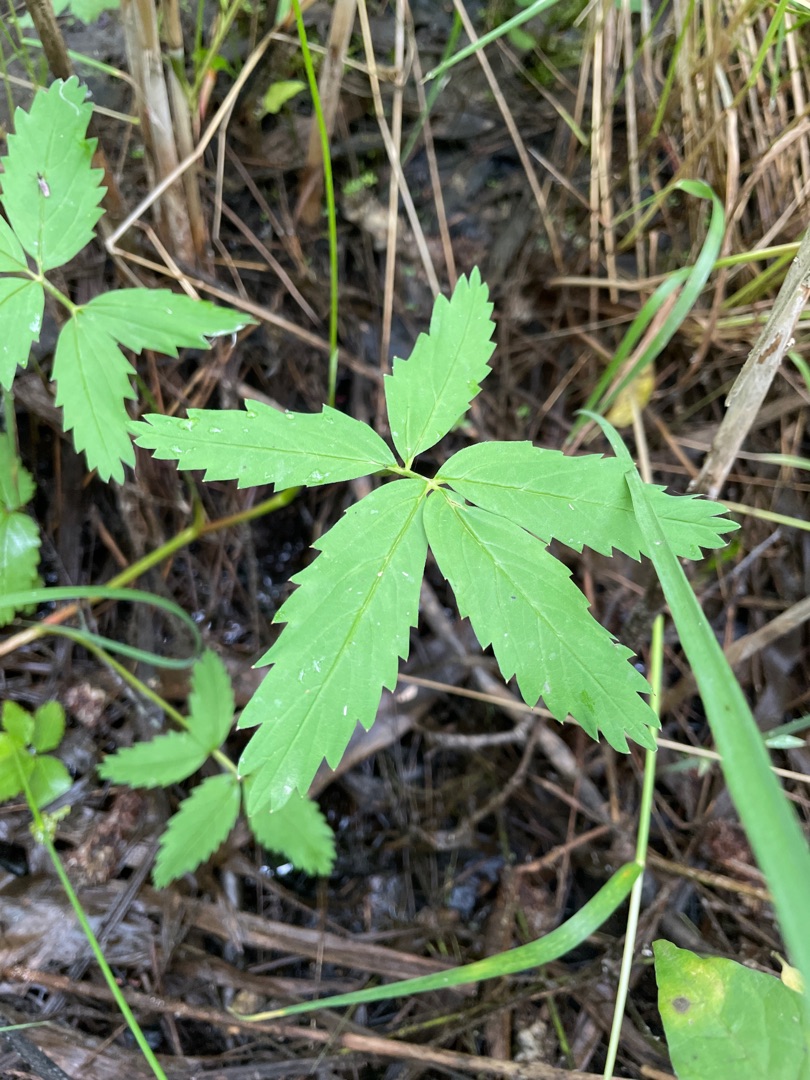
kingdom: Plantae
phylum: Tracheophyta
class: Magnoliopsida
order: Rosales
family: Rosaceae
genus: Comarum
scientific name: Comarum palustre
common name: Kragefod
